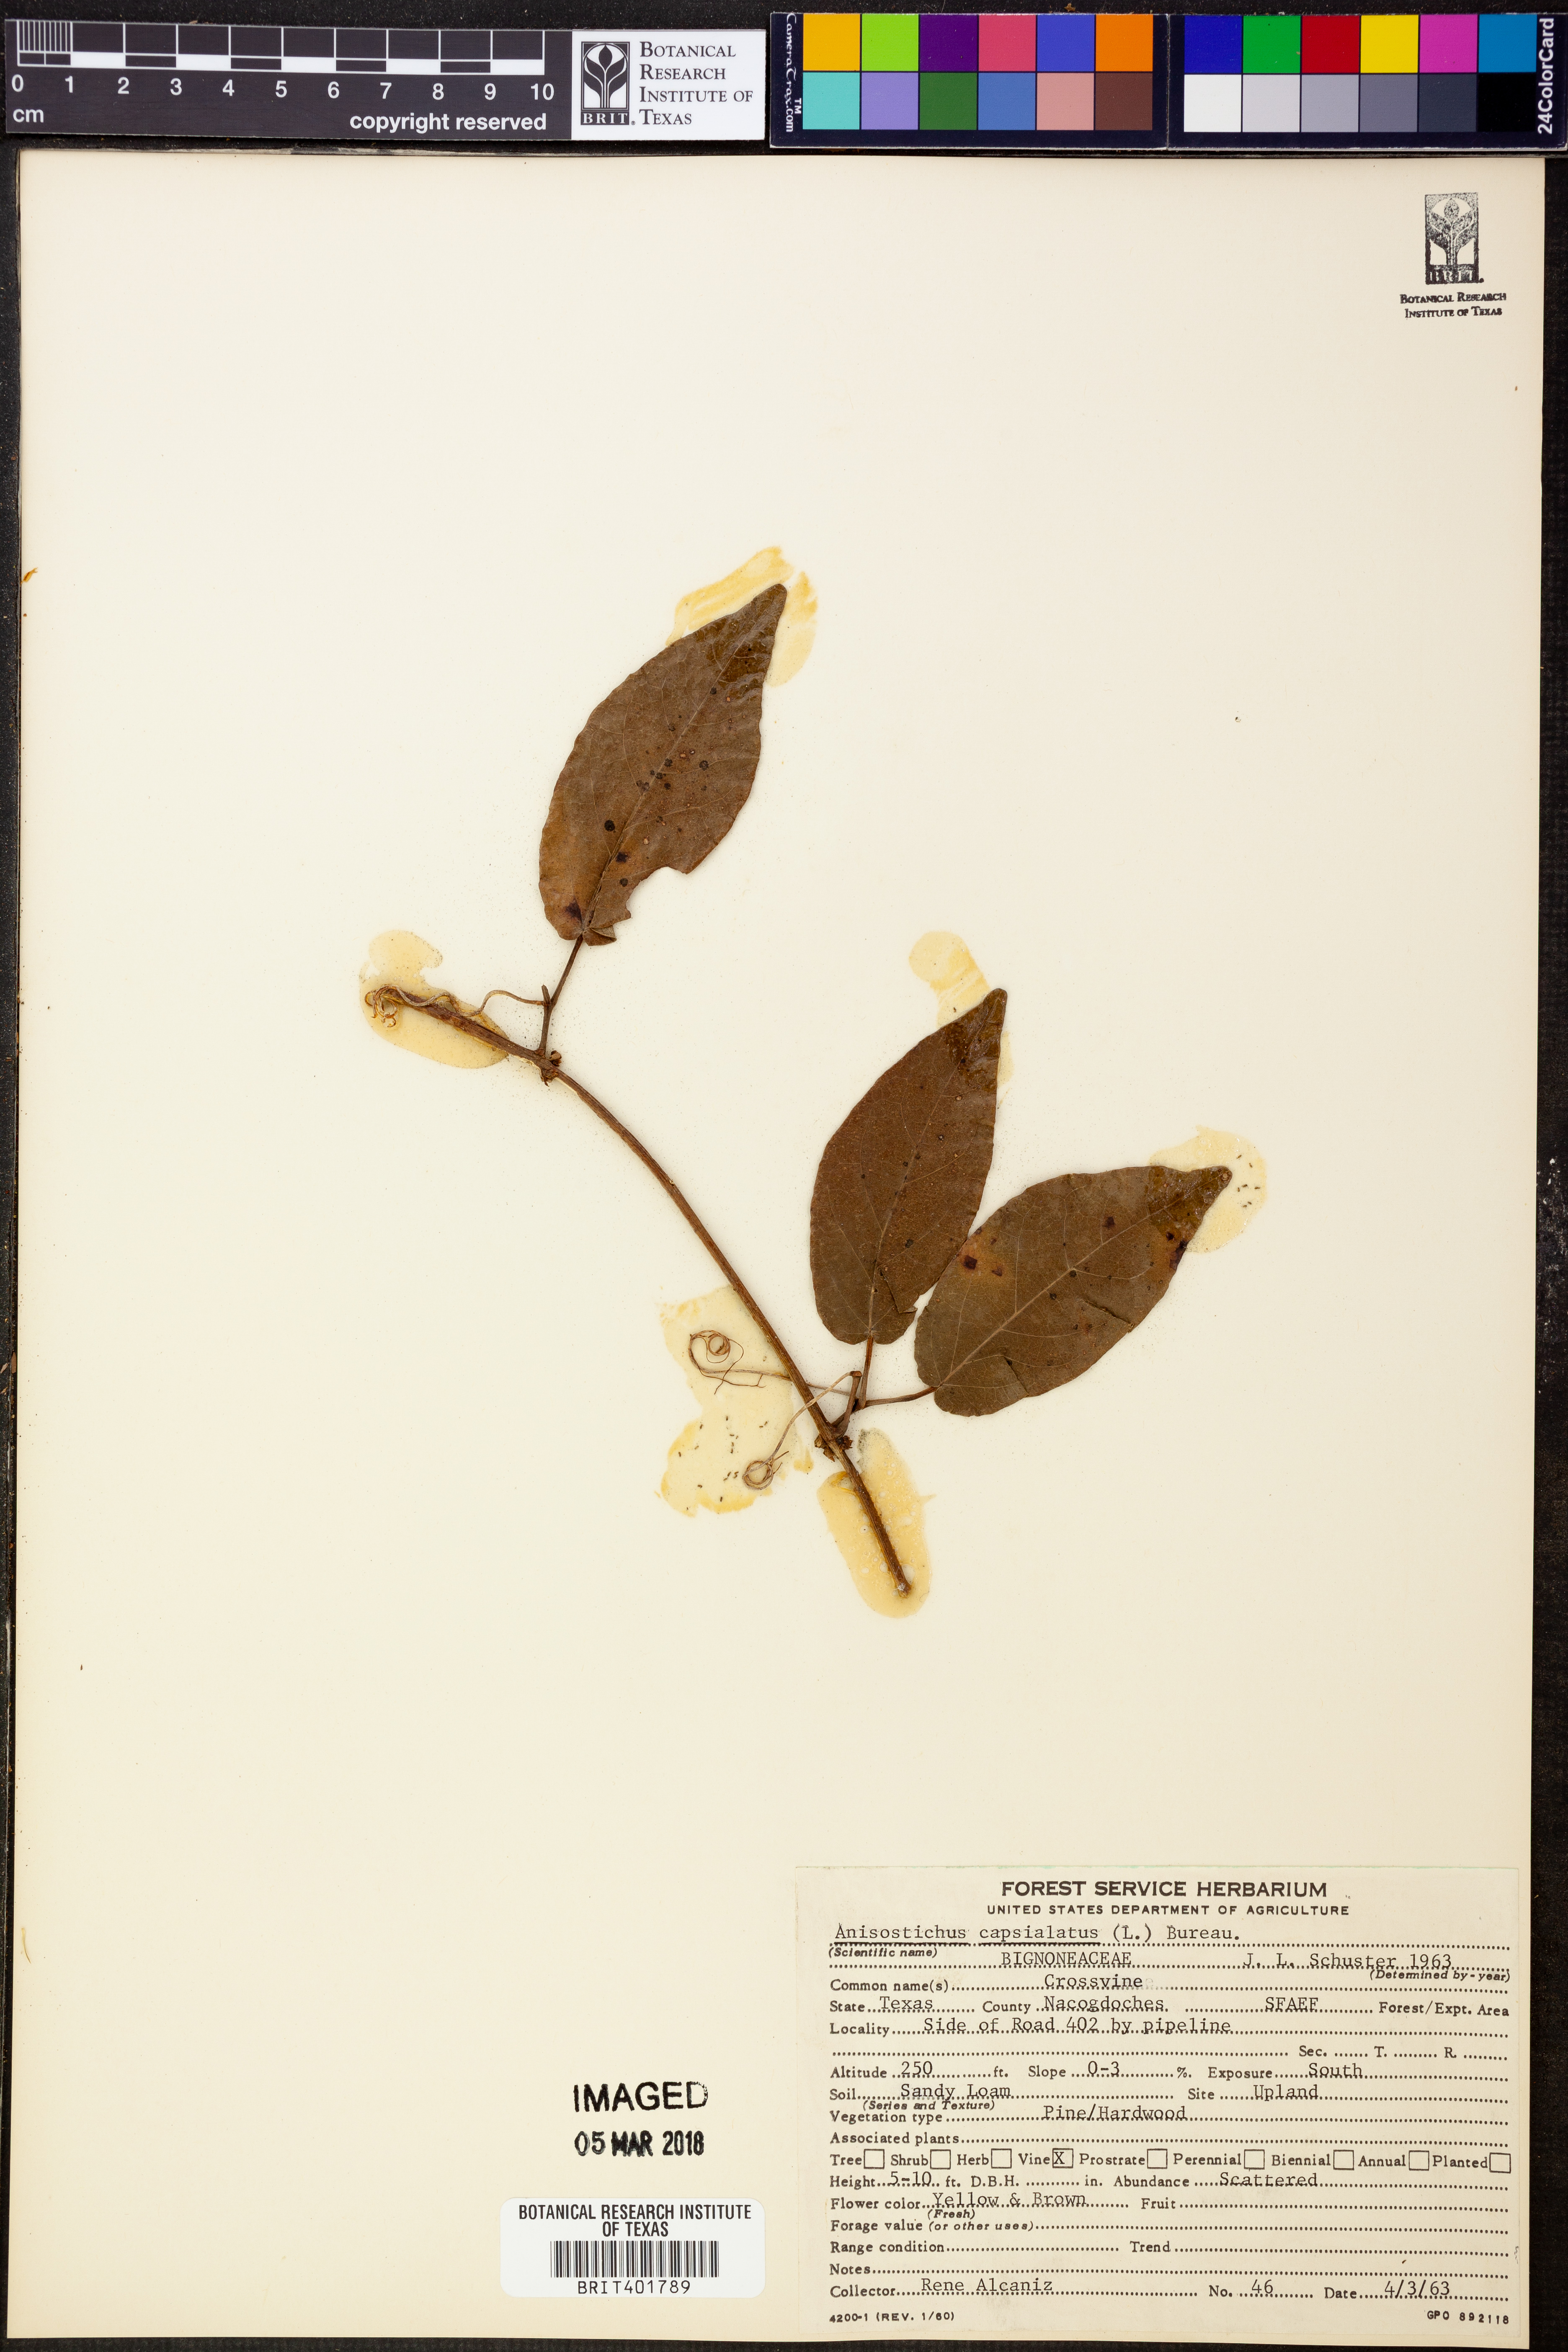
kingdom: Plantae
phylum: Tracheophyta
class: Magnoliopsida
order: Lamiales
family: Bignoniaceae
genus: Bignonia
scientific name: Bignonia capreolata
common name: Crossvine
